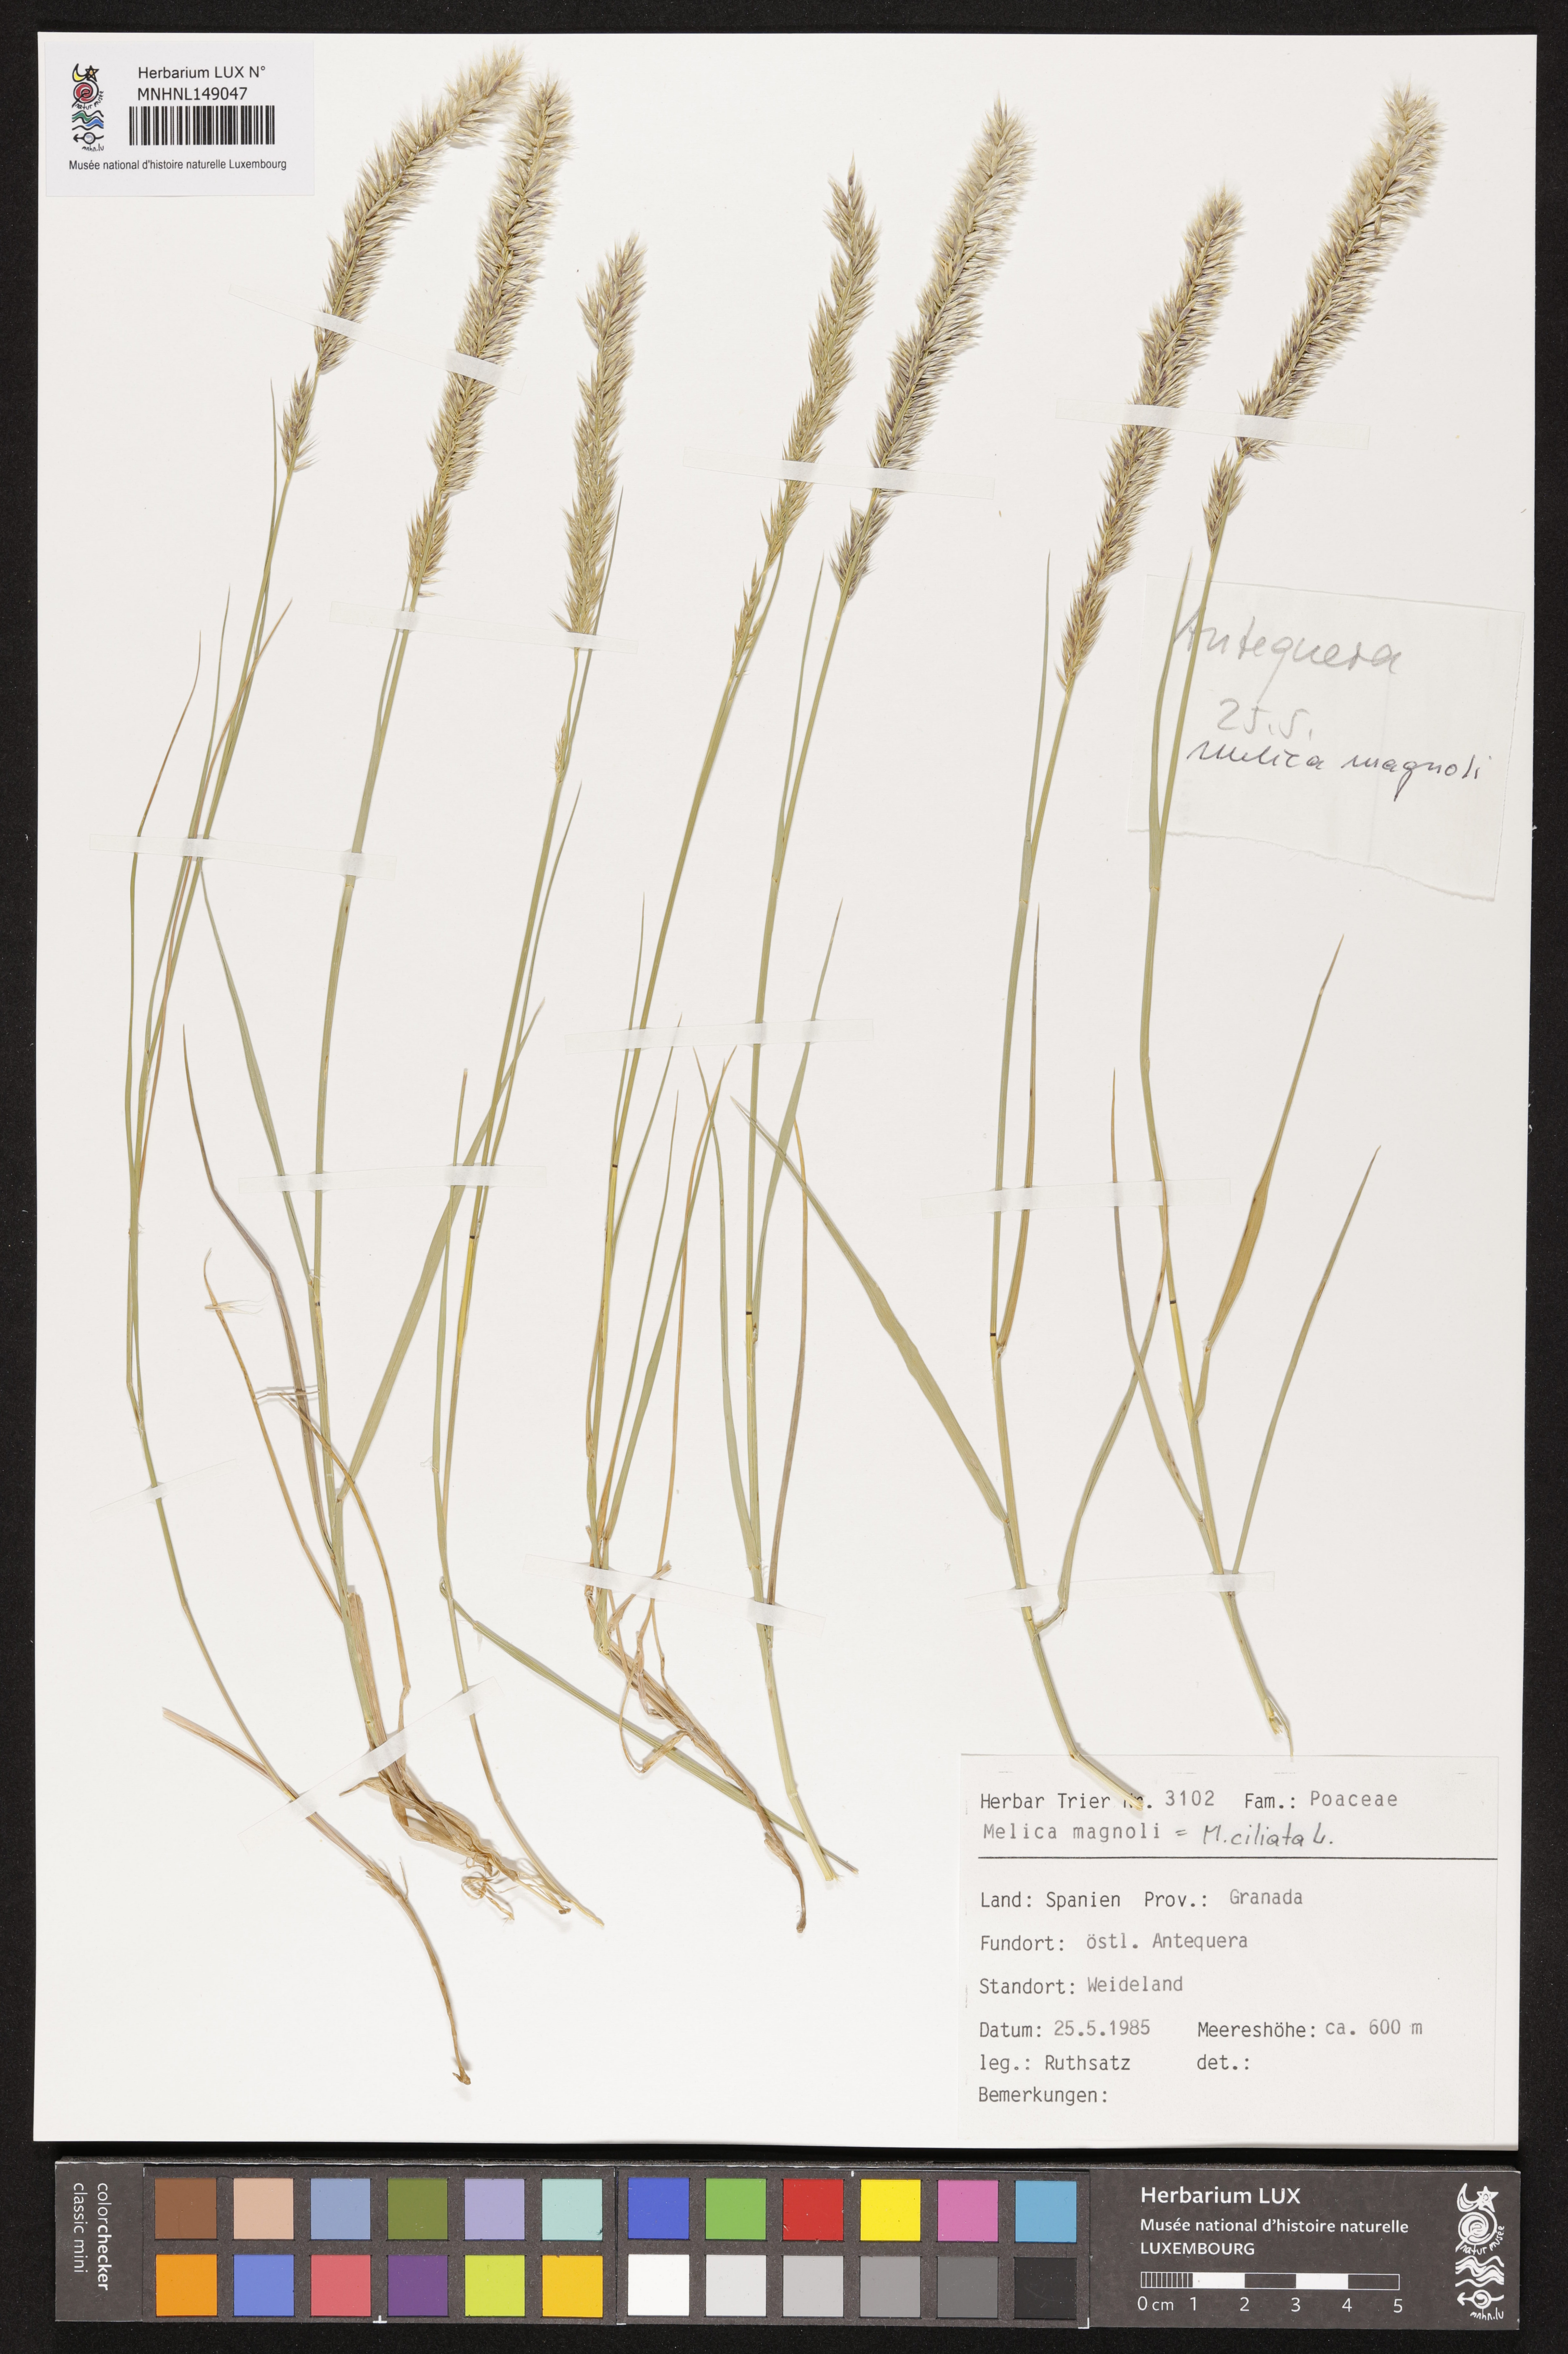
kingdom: Plantae
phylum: Tracheophyta
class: Liliopsida
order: Poales
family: Poaceae
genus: Melica
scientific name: Melica ciliata
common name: Hairy melicgrass
